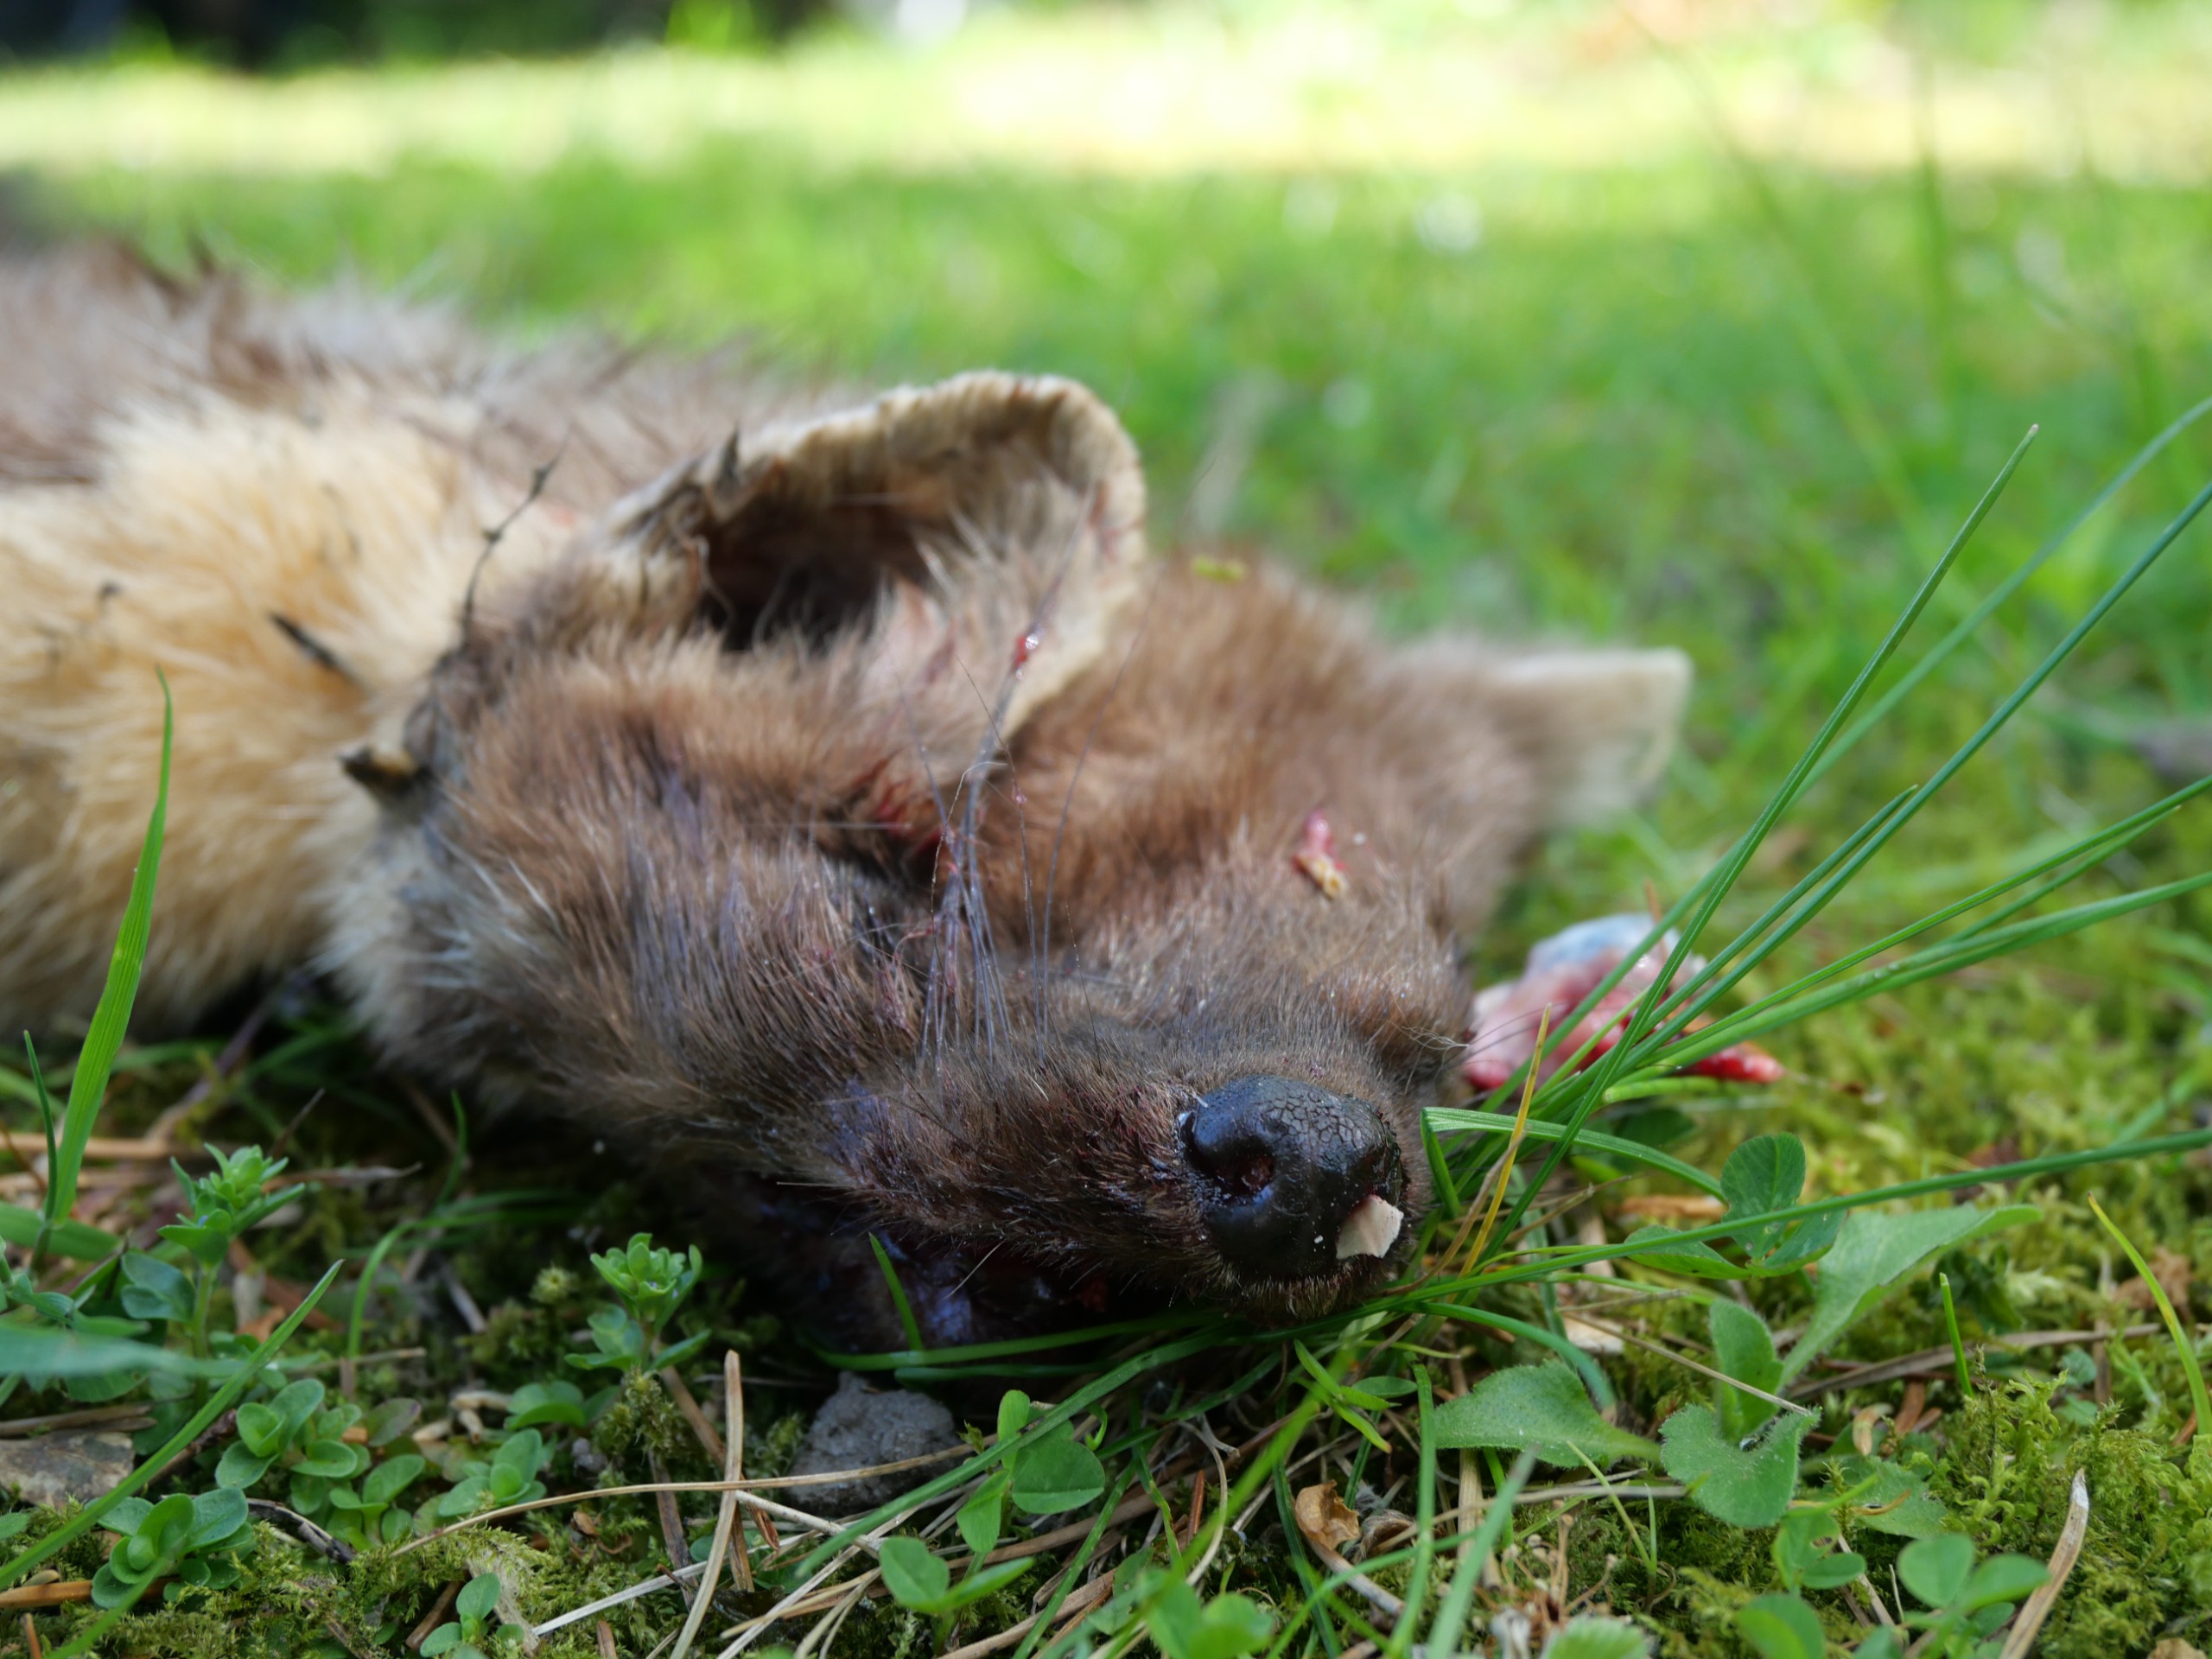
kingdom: Animalia
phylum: Chordata
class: Mammalia
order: Carnivora
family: Mustelidae
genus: Martes
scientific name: Martes martes
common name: Skovmår
